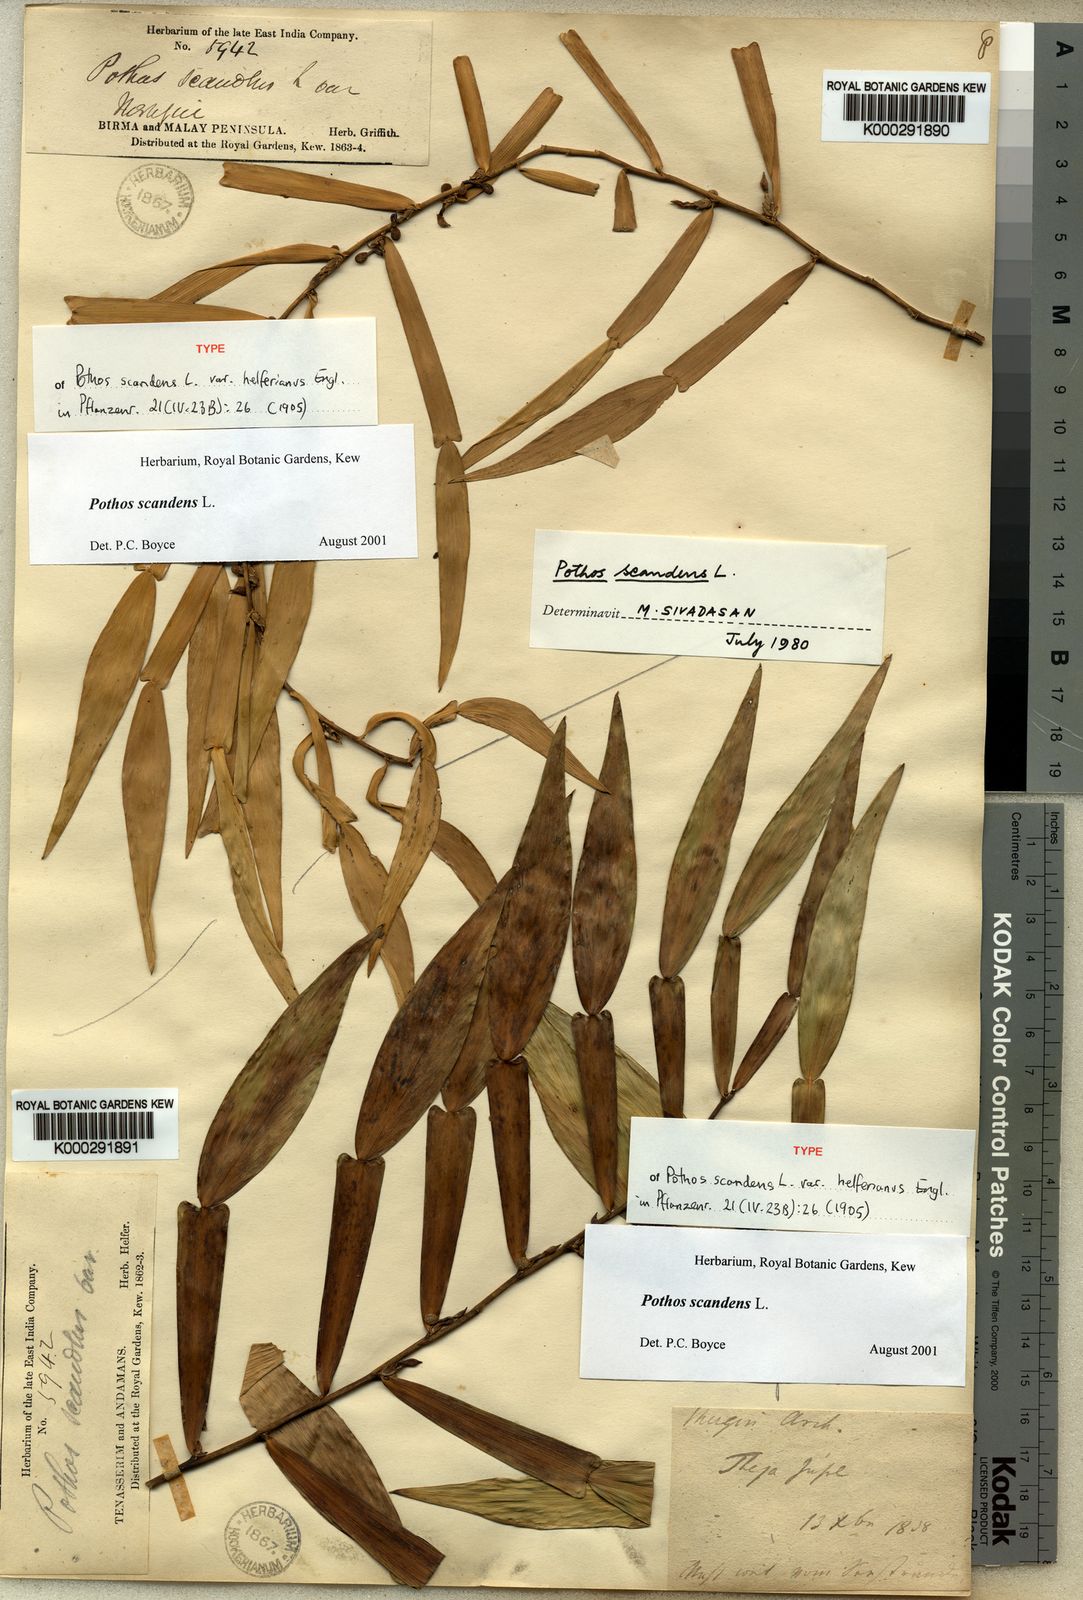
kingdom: Plantae
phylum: Tracheophyta
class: Liliopsida
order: Alismatales
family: Araceae
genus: Pothos
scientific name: Pothos scandens
